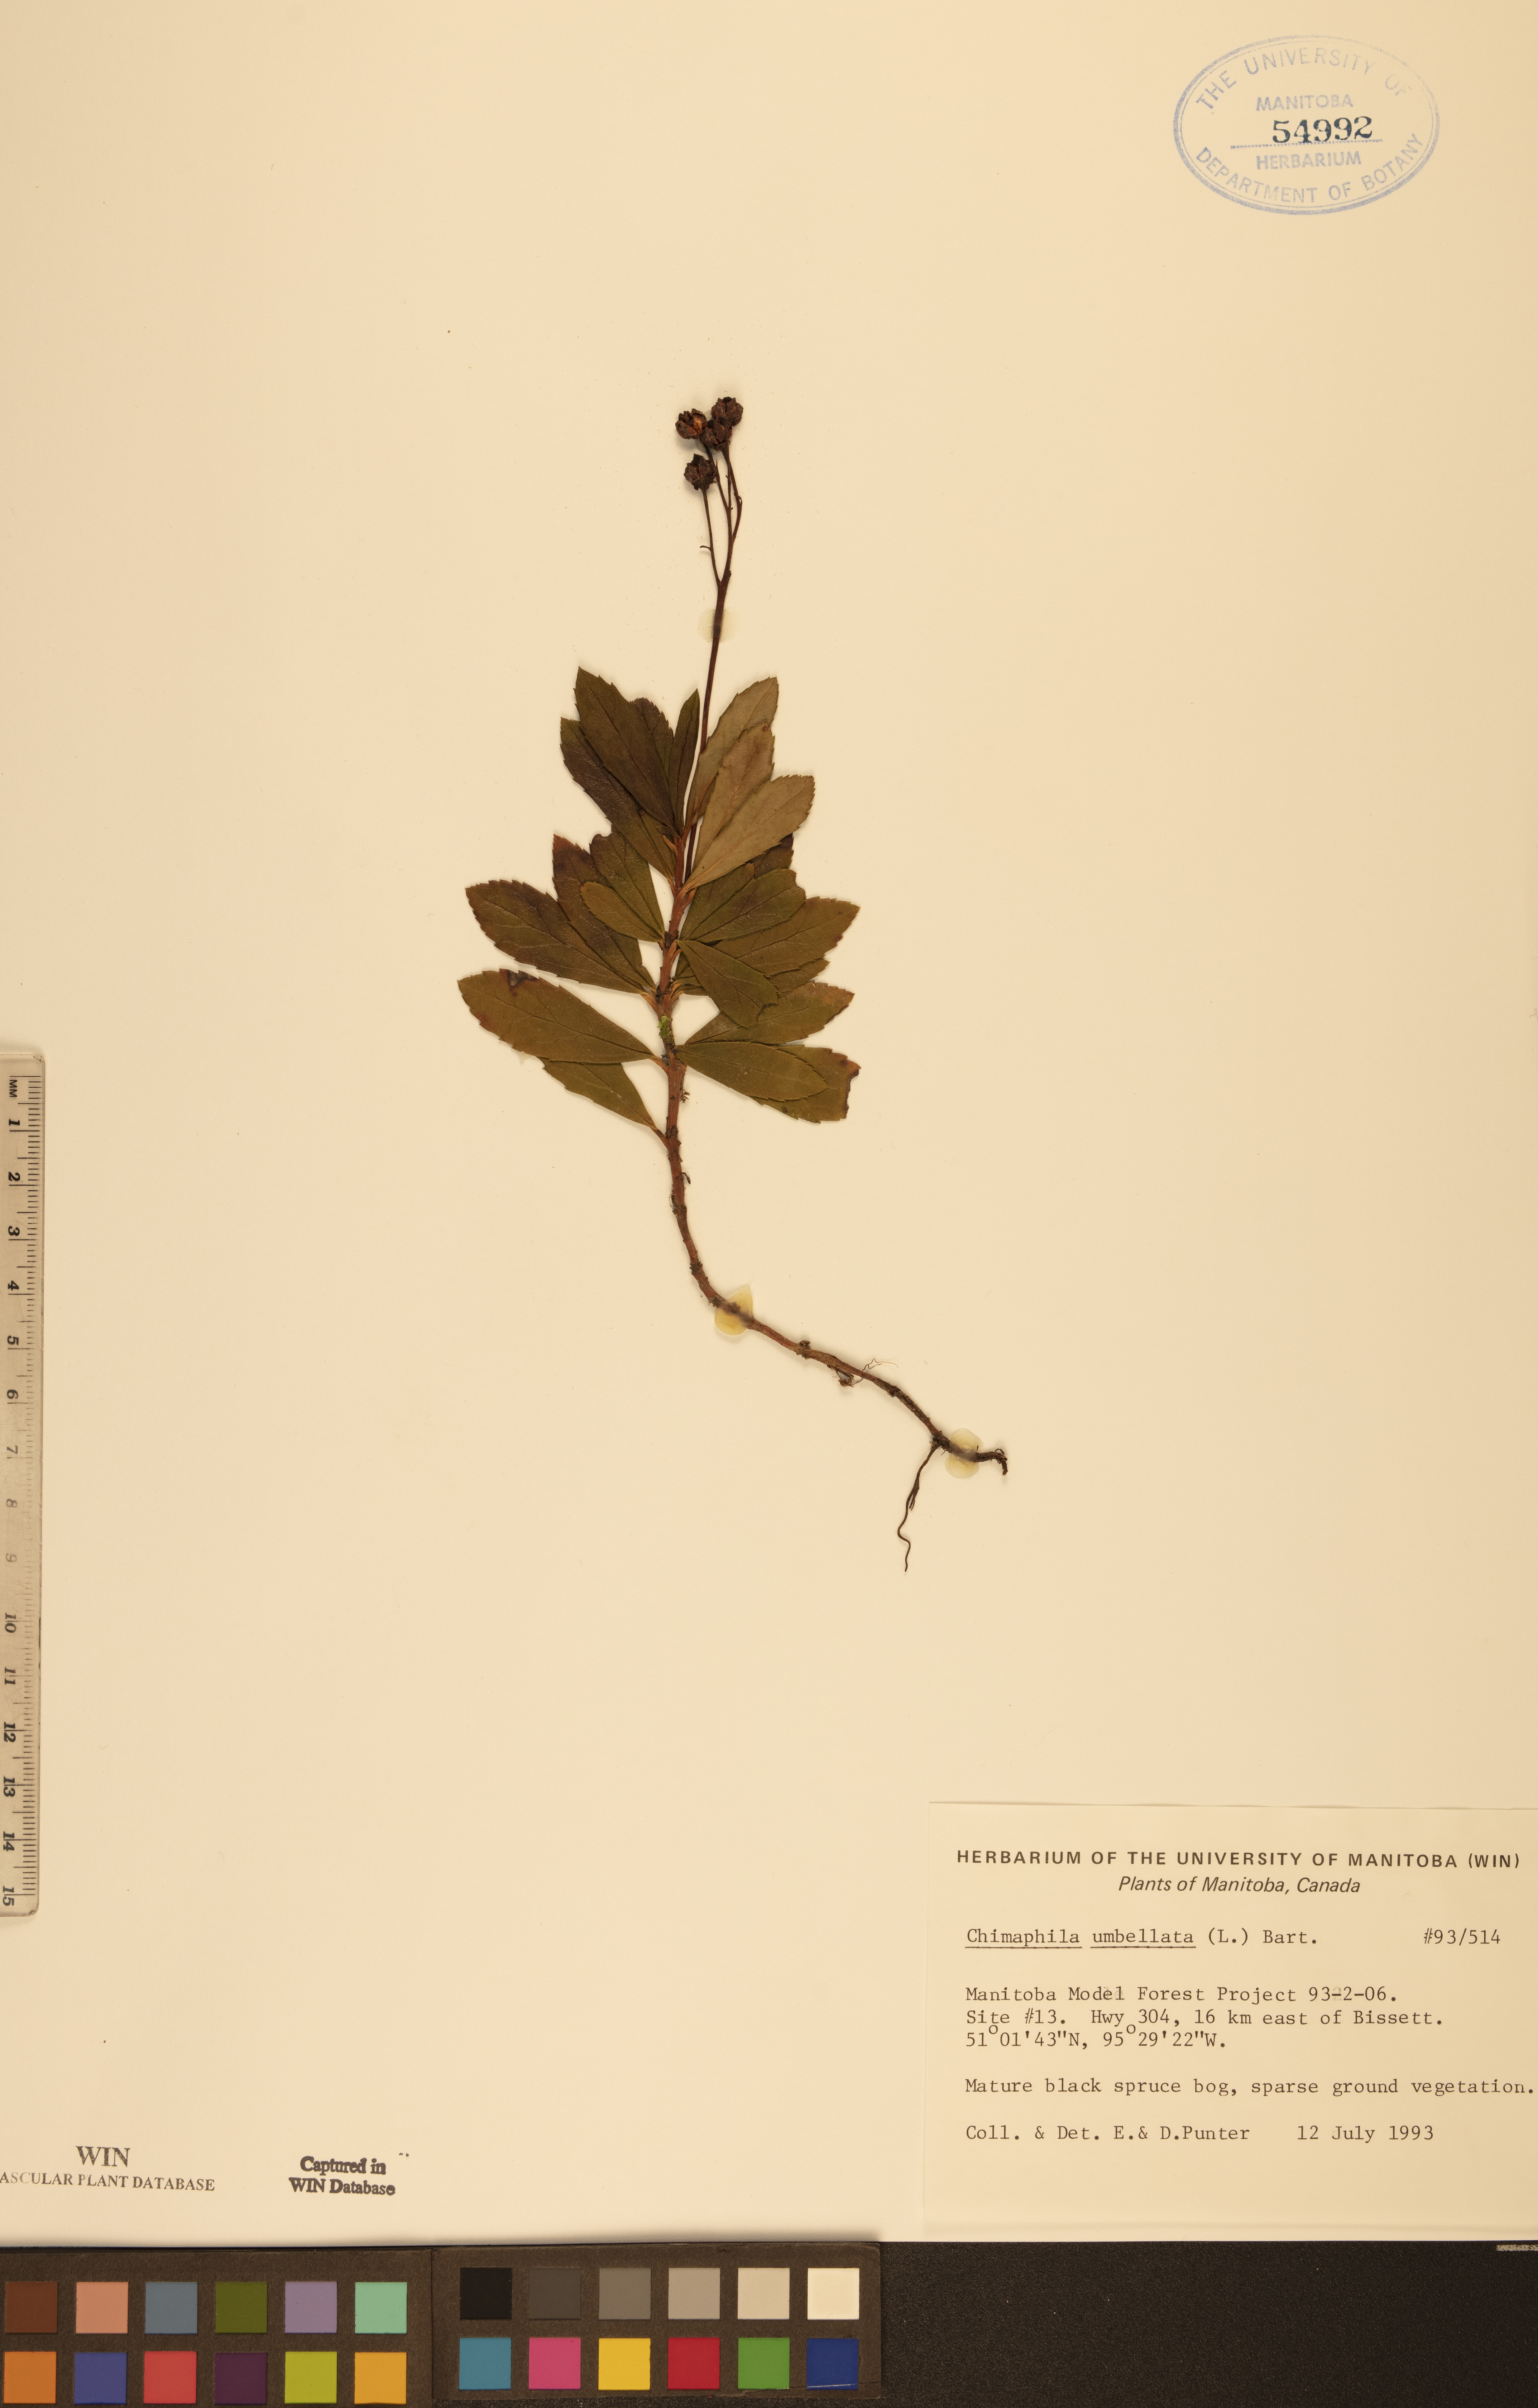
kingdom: Plantae
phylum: Tracheophyta
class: Magnoliopsida
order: Ericales
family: Ericaceae
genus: Chimaphila
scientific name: Chimaphila umbellata
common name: Pipsissewa
